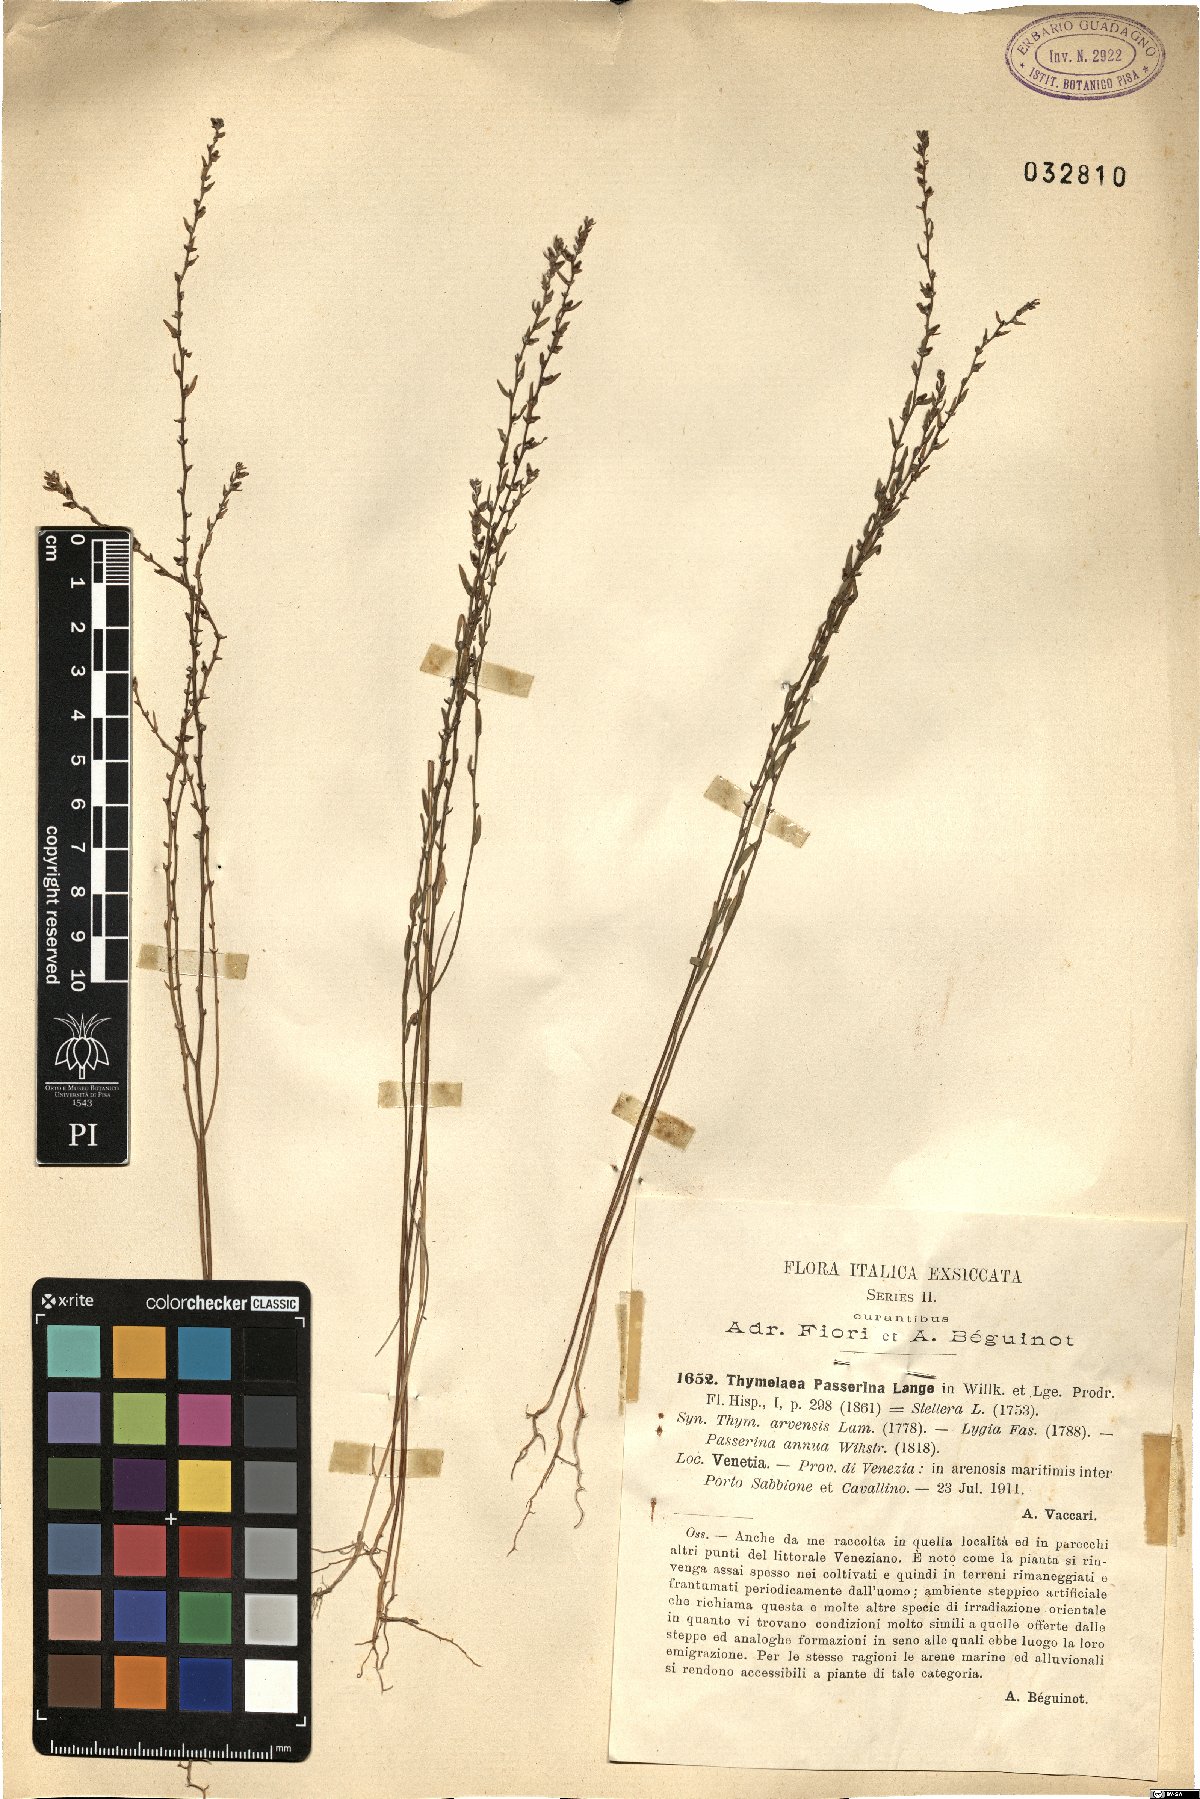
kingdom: Plantae
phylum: Tracheophyta
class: Magnoliopsida
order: Malvales
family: Thymelaeaceae
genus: Thymelaea
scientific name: Thymelaea passerina
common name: Annual thymelaea
